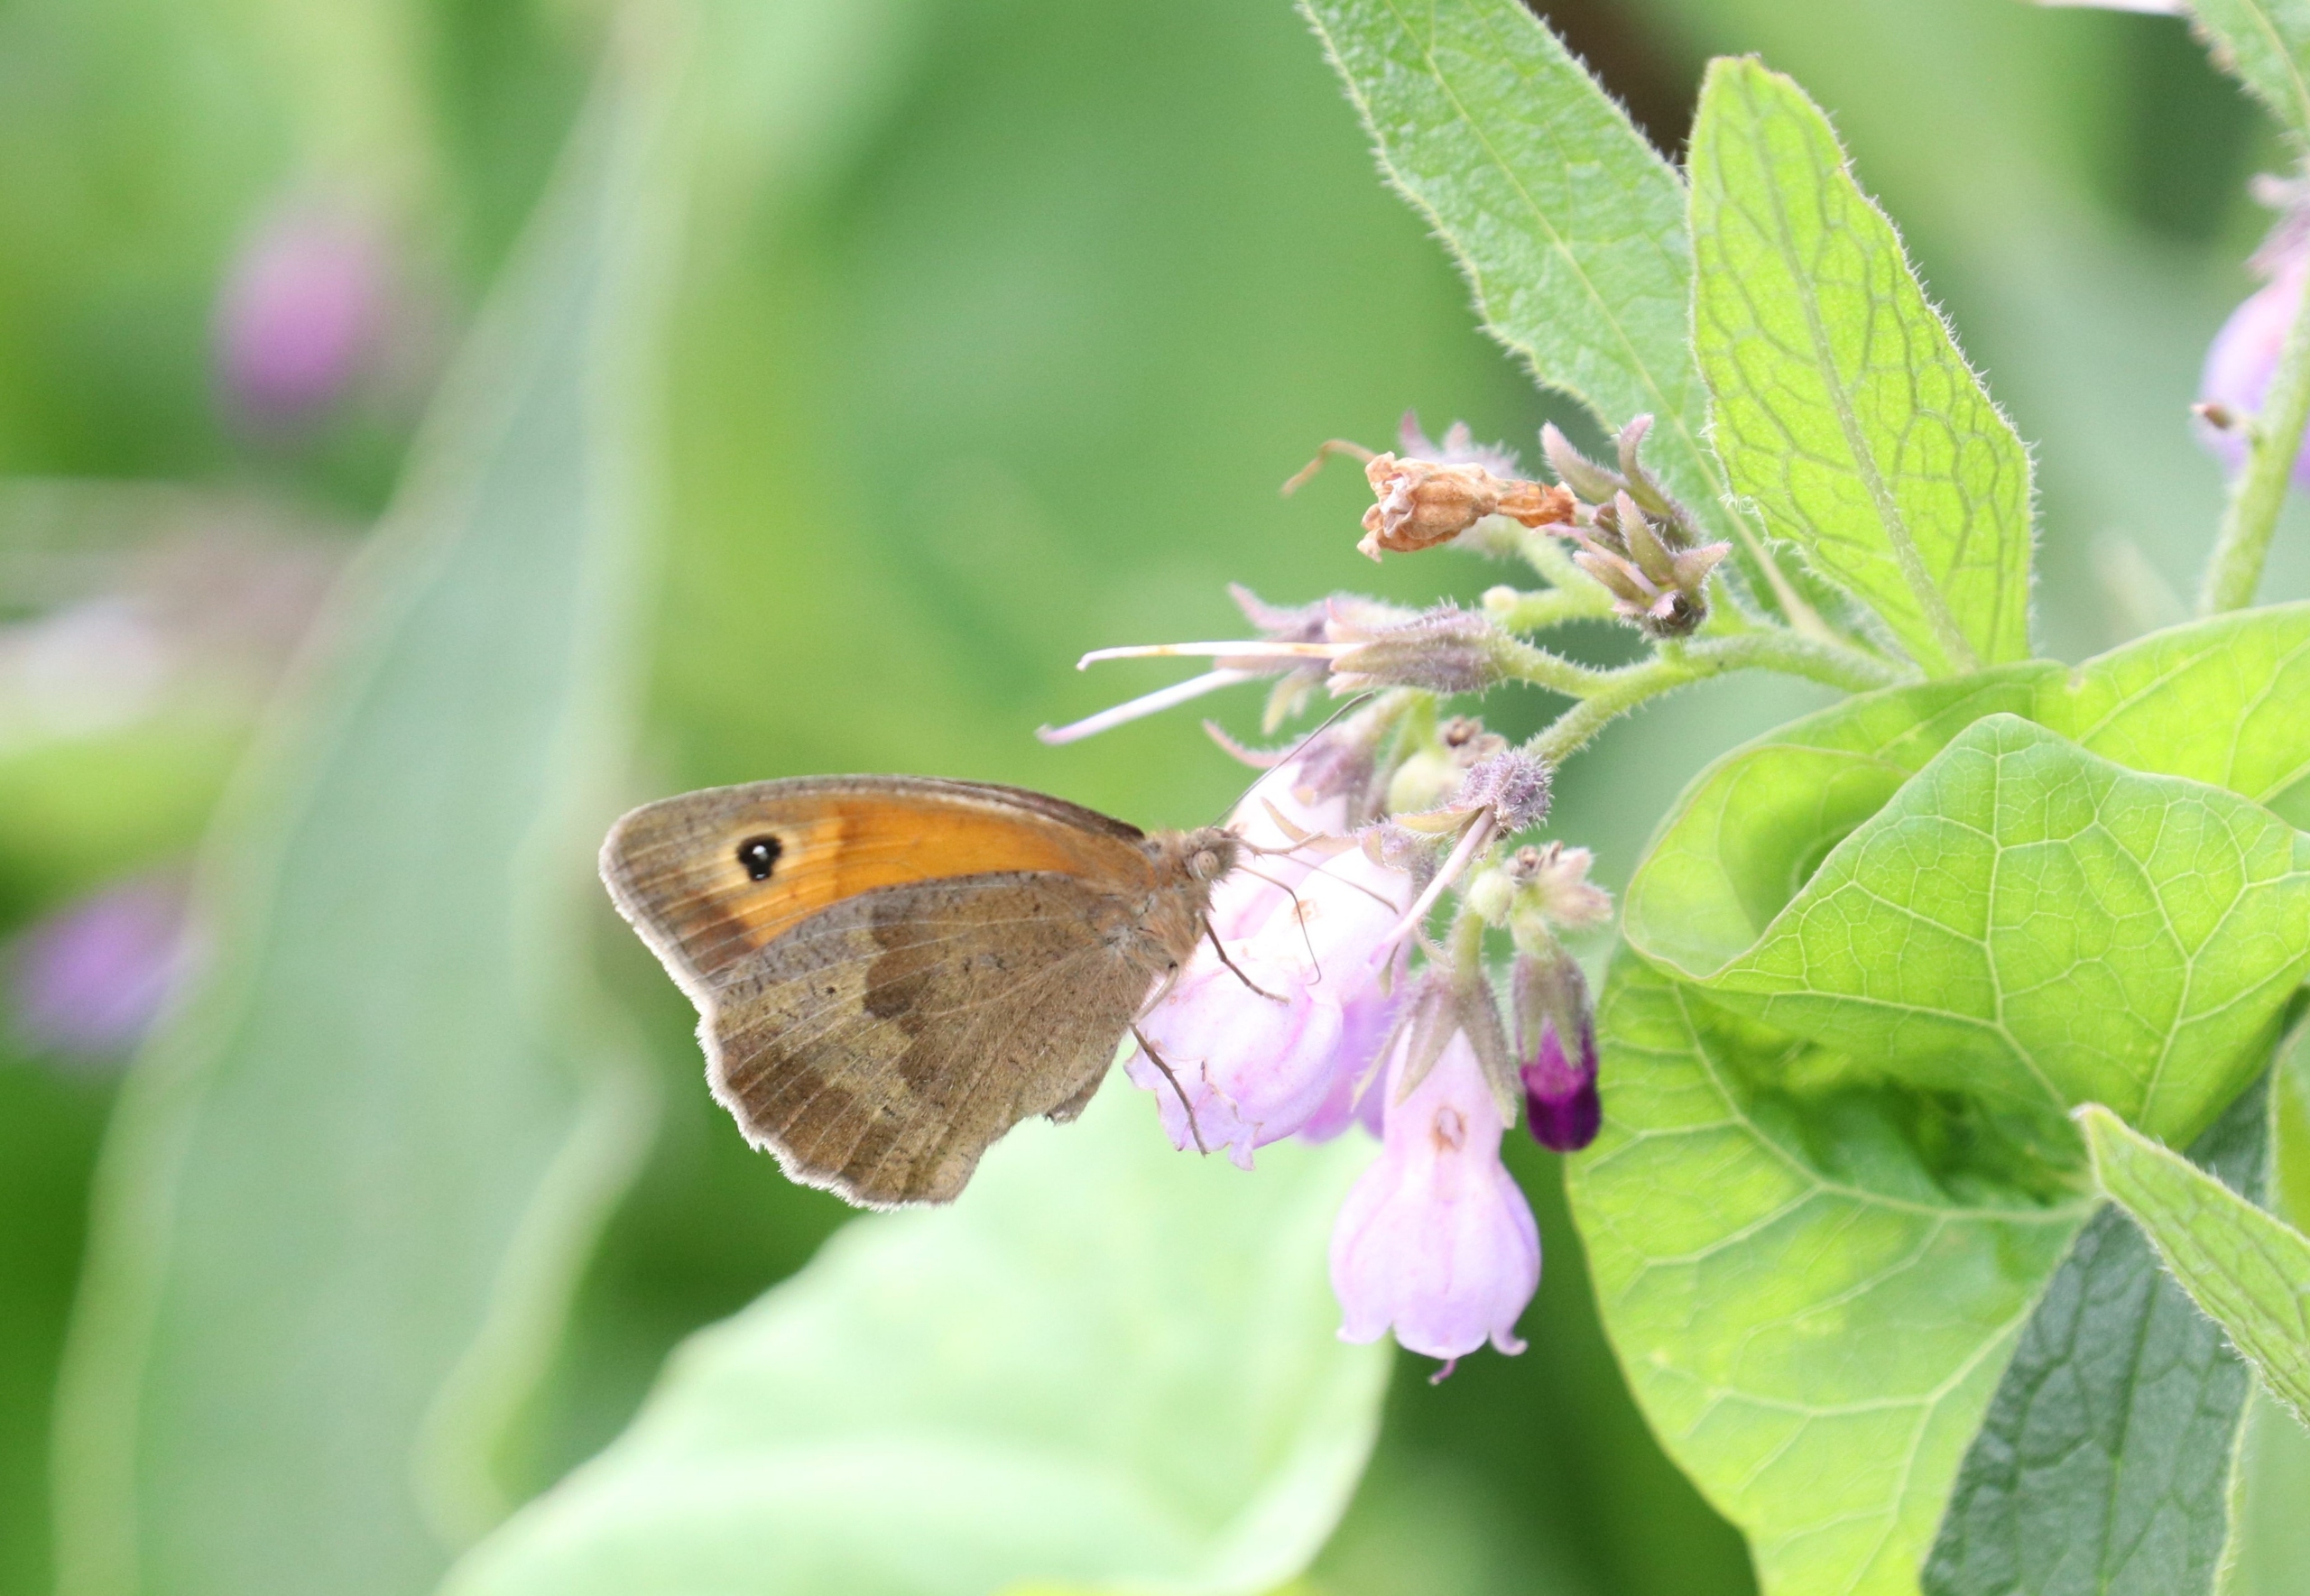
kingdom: Animalia
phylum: Arthropoda
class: Insecta
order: Lepidoptera
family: Nymphalidae
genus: Maniola
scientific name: Maniola jurtina
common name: Græsrandøje
